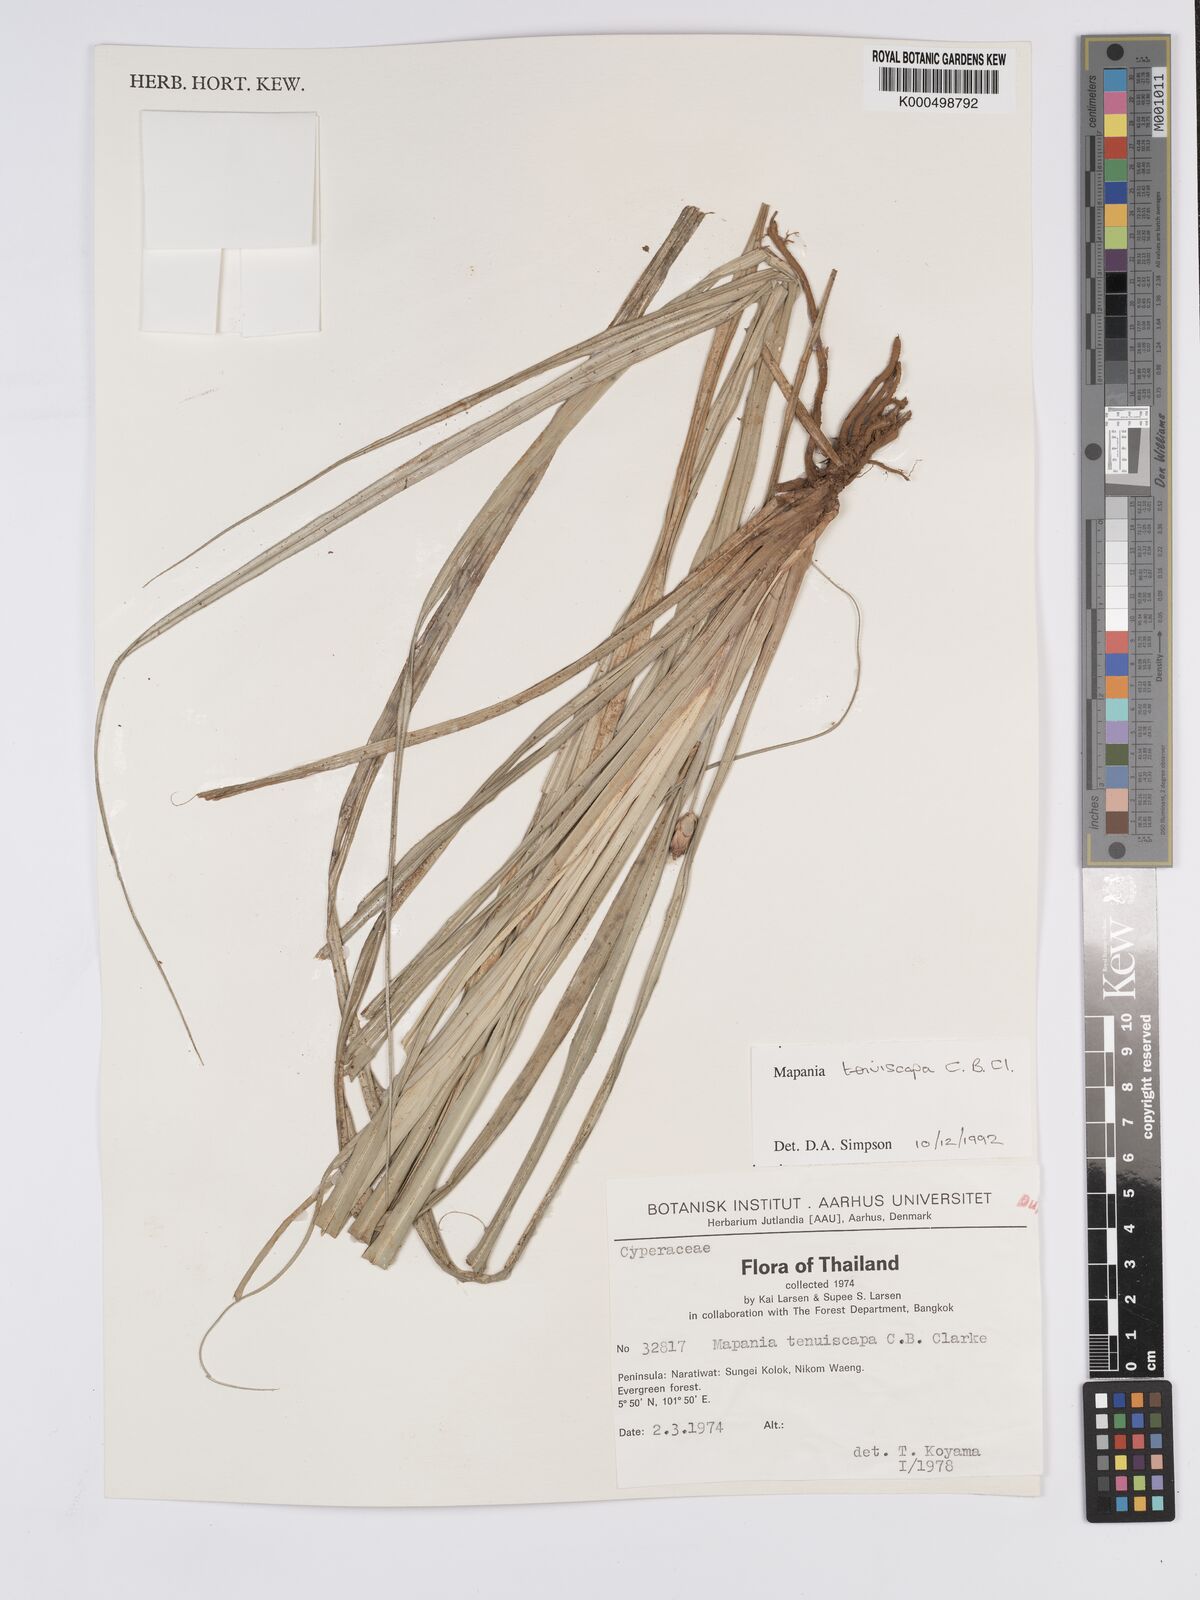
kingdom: Plantae
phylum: Tracheophyta
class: Liliopsida
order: Poales
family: Cyperaceae
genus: Mapania
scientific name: Mapania tenuiscapa
